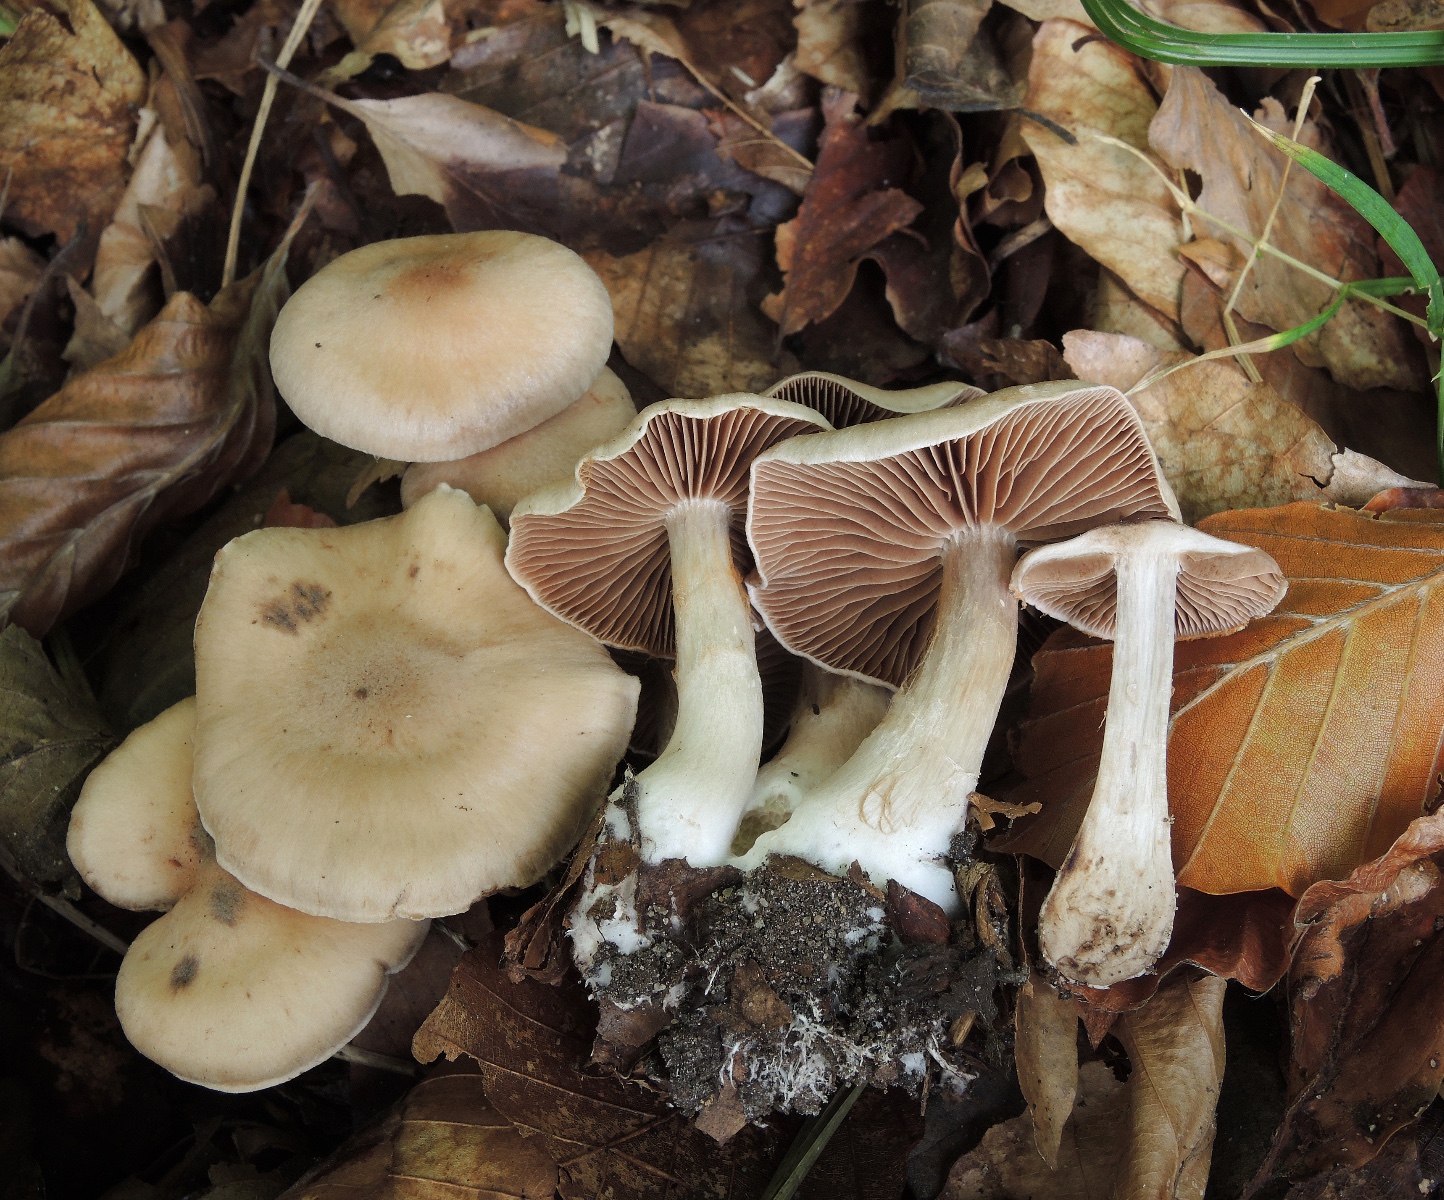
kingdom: Fungi
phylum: Basidiomycota
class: Agaricomycetes
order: Agaricales
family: Cortinariaceae
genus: Cortinarius
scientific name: Cortinarius
